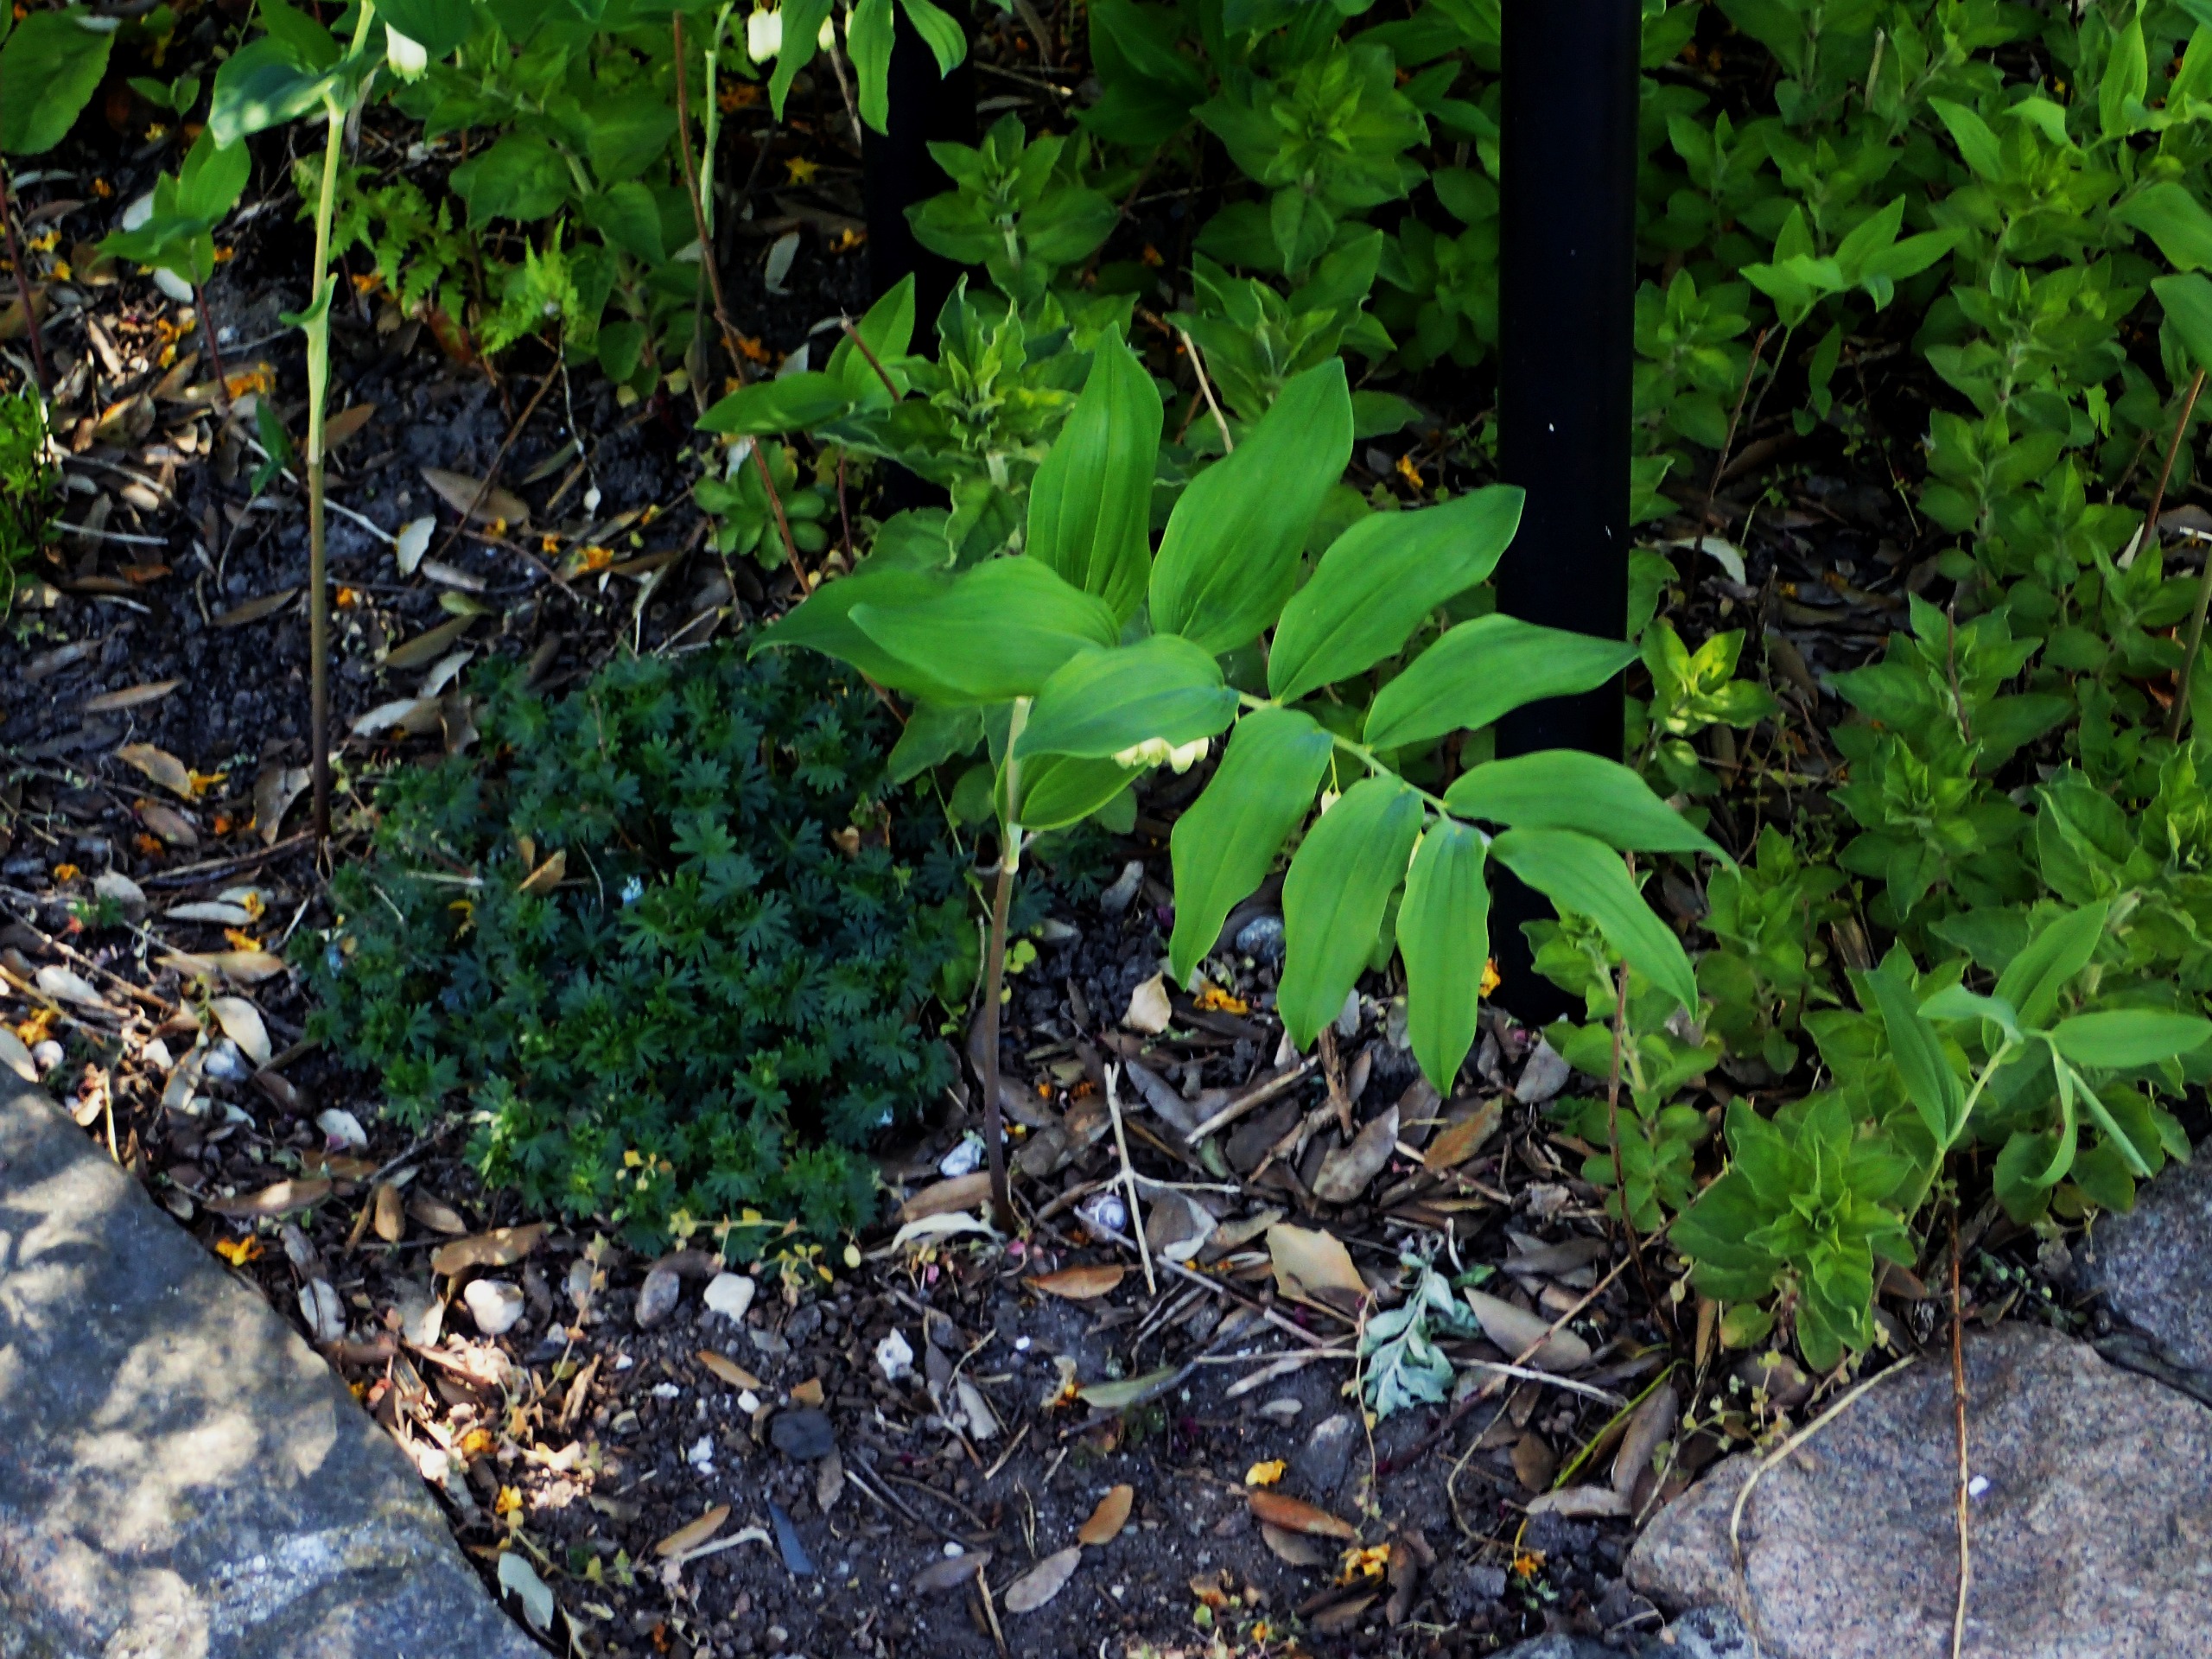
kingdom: Plantae
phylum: Tracheophyta
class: Liliopsida
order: Asparagales
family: Asparagaceae
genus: Polygonatum
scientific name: Polygonatum multiflorum
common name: Stor konval
